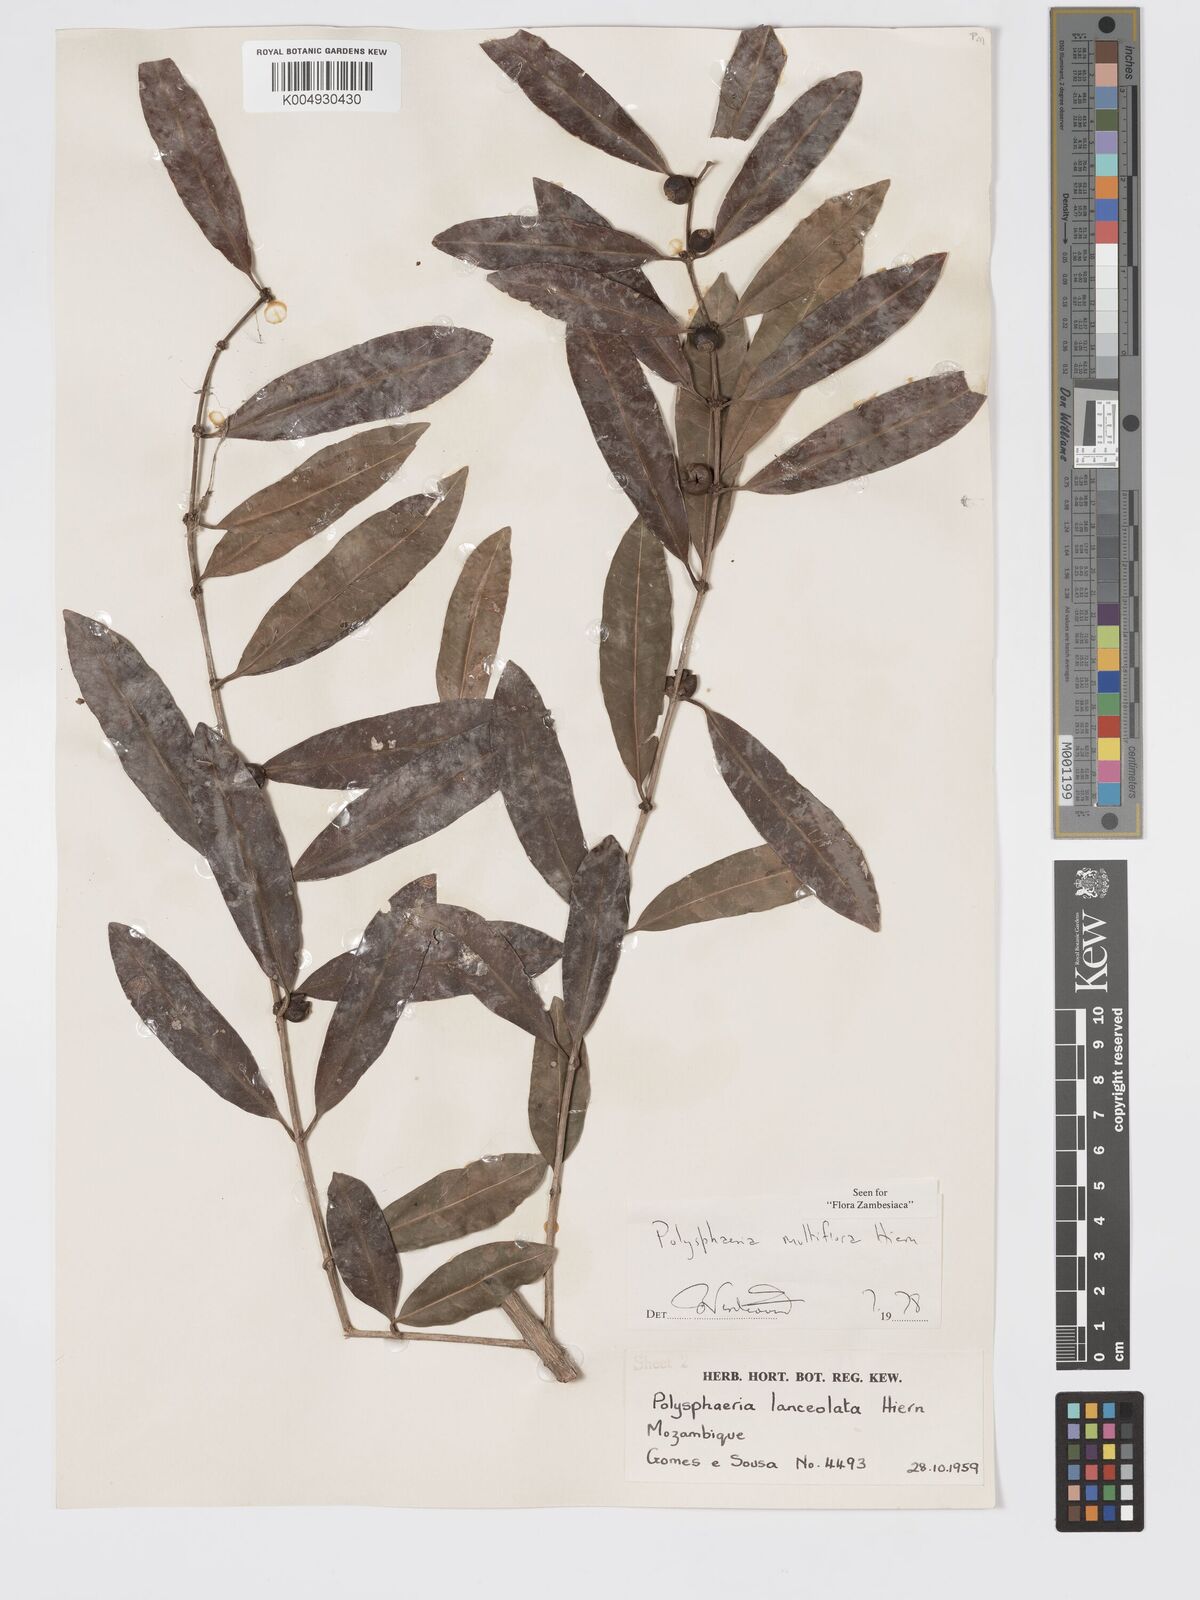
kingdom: Plantae
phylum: Tracheophyta
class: Magnoliopsida
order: Gentianales
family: Rubiaceae
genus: Polysphaeria
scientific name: Polysphaeria multiflora
